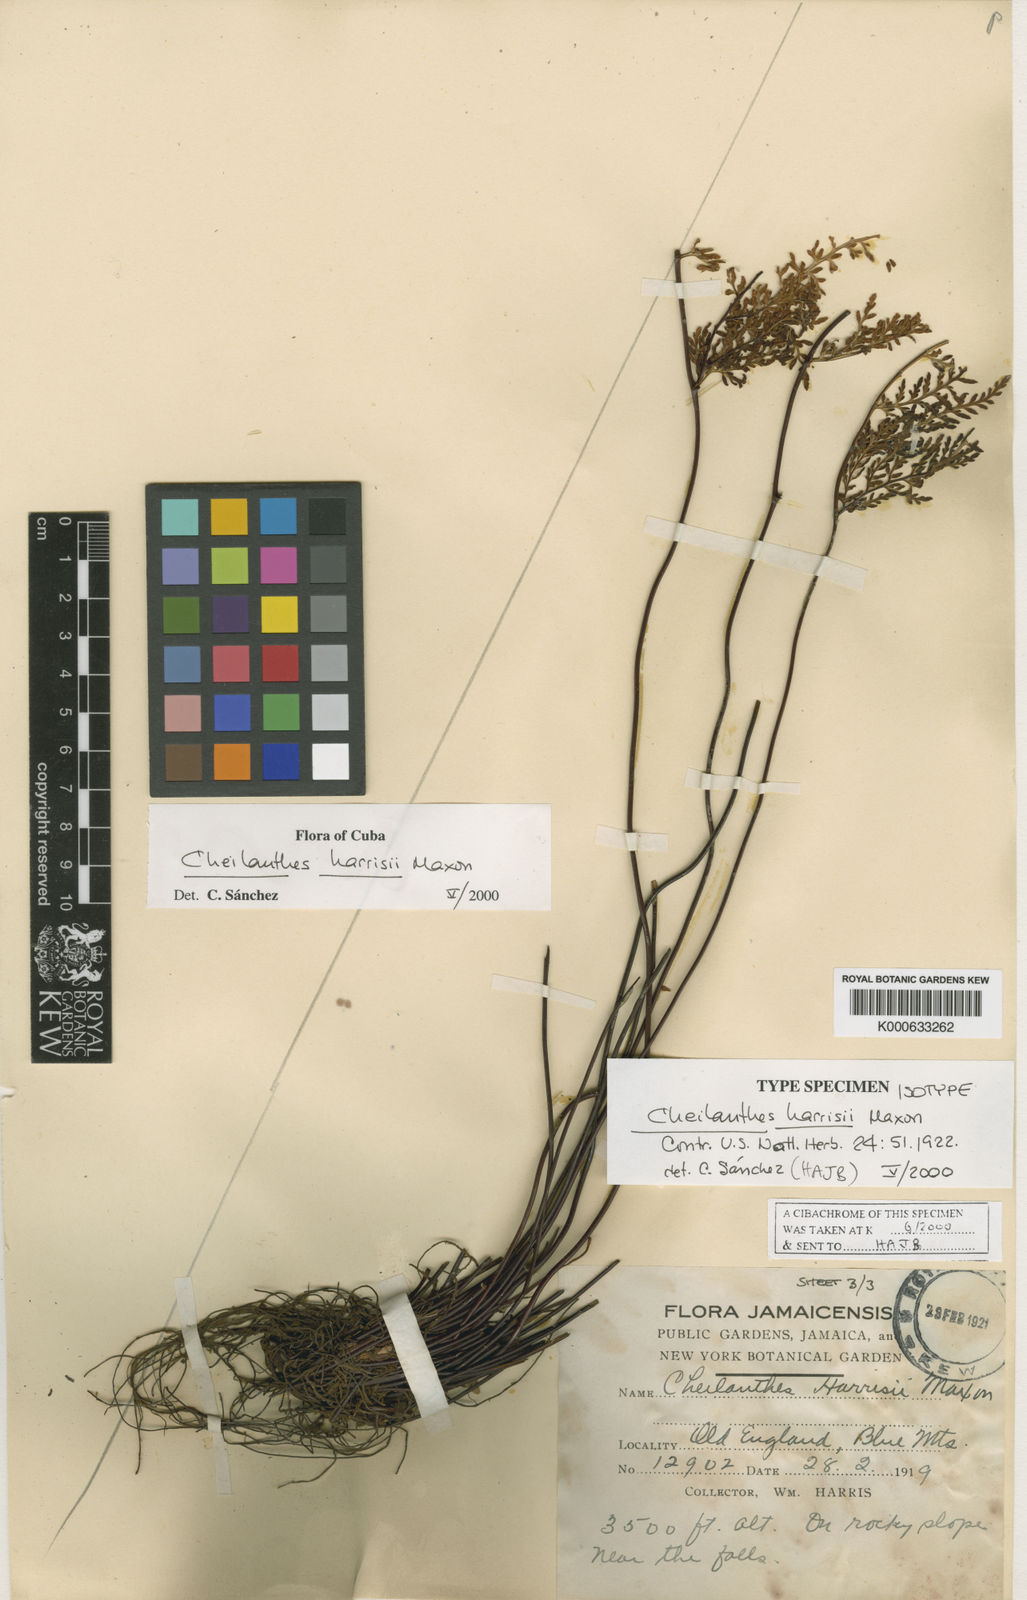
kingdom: Plantae
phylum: Tracheophyta
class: Polypodiopsida
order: Polypodiales
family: Pteridaceae
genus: Gaga
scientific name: Gaga harrisii
